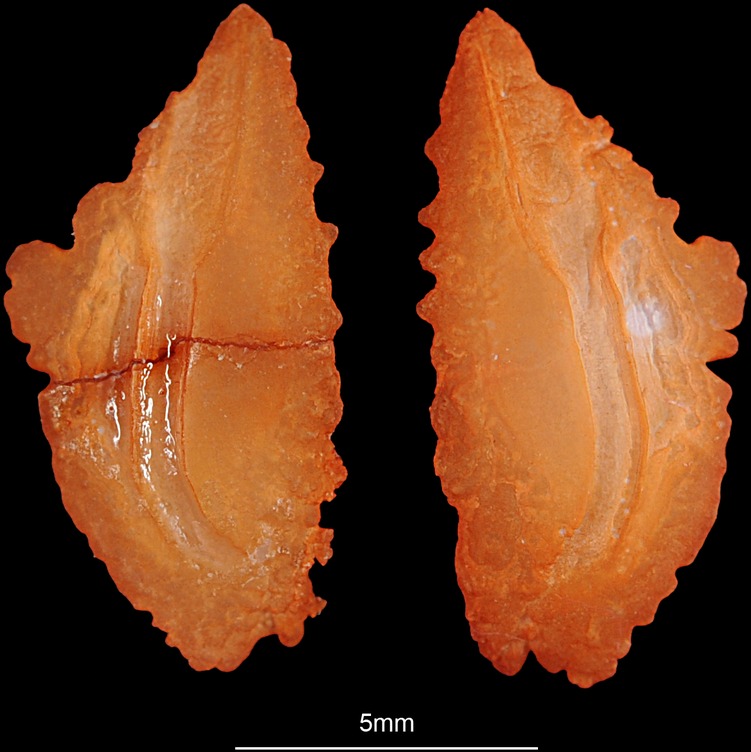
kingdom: Animalia
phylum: Chordata
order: Perciformes
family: Centrarchidae
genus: Micropterus
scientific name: Micropterus dolomieu
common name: Smallmouth bass
